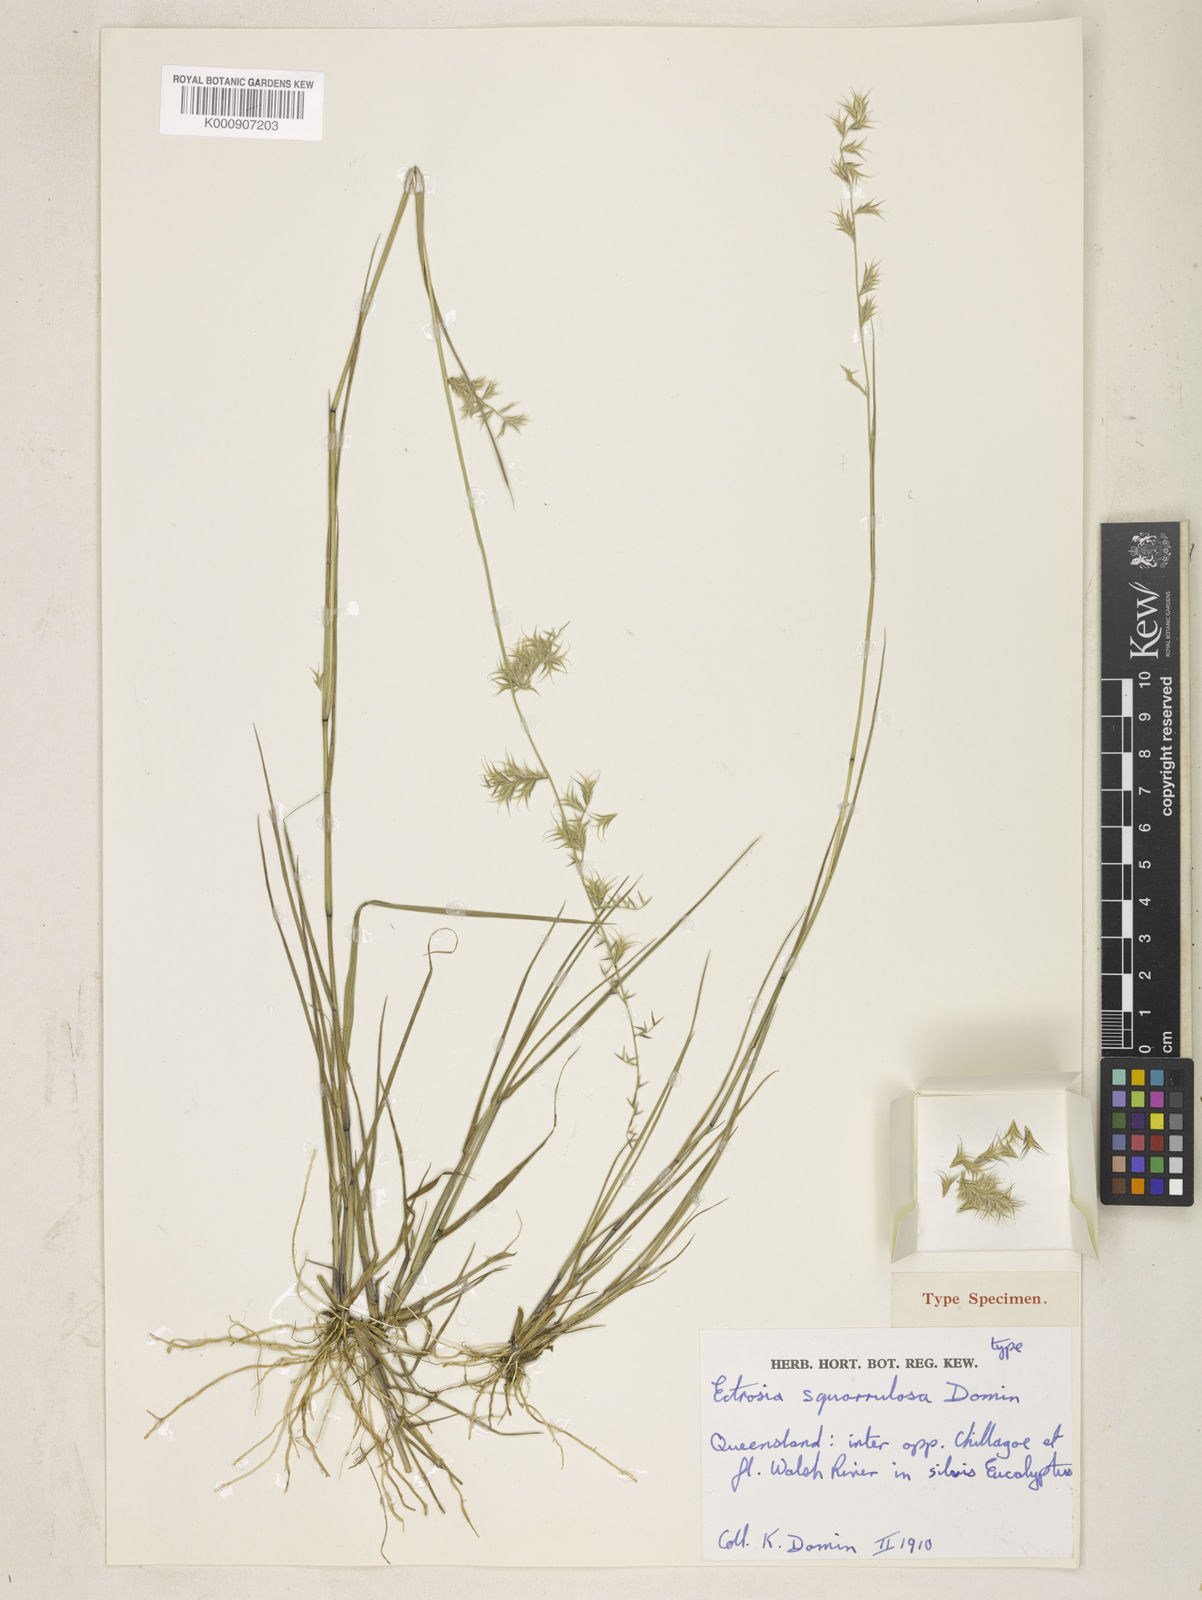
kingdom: Plantae
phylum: Tracheophyta
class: Liliopsida
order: Poales
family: Poaceae
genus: Eragrostis
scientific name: Eragrostis gulliveri
